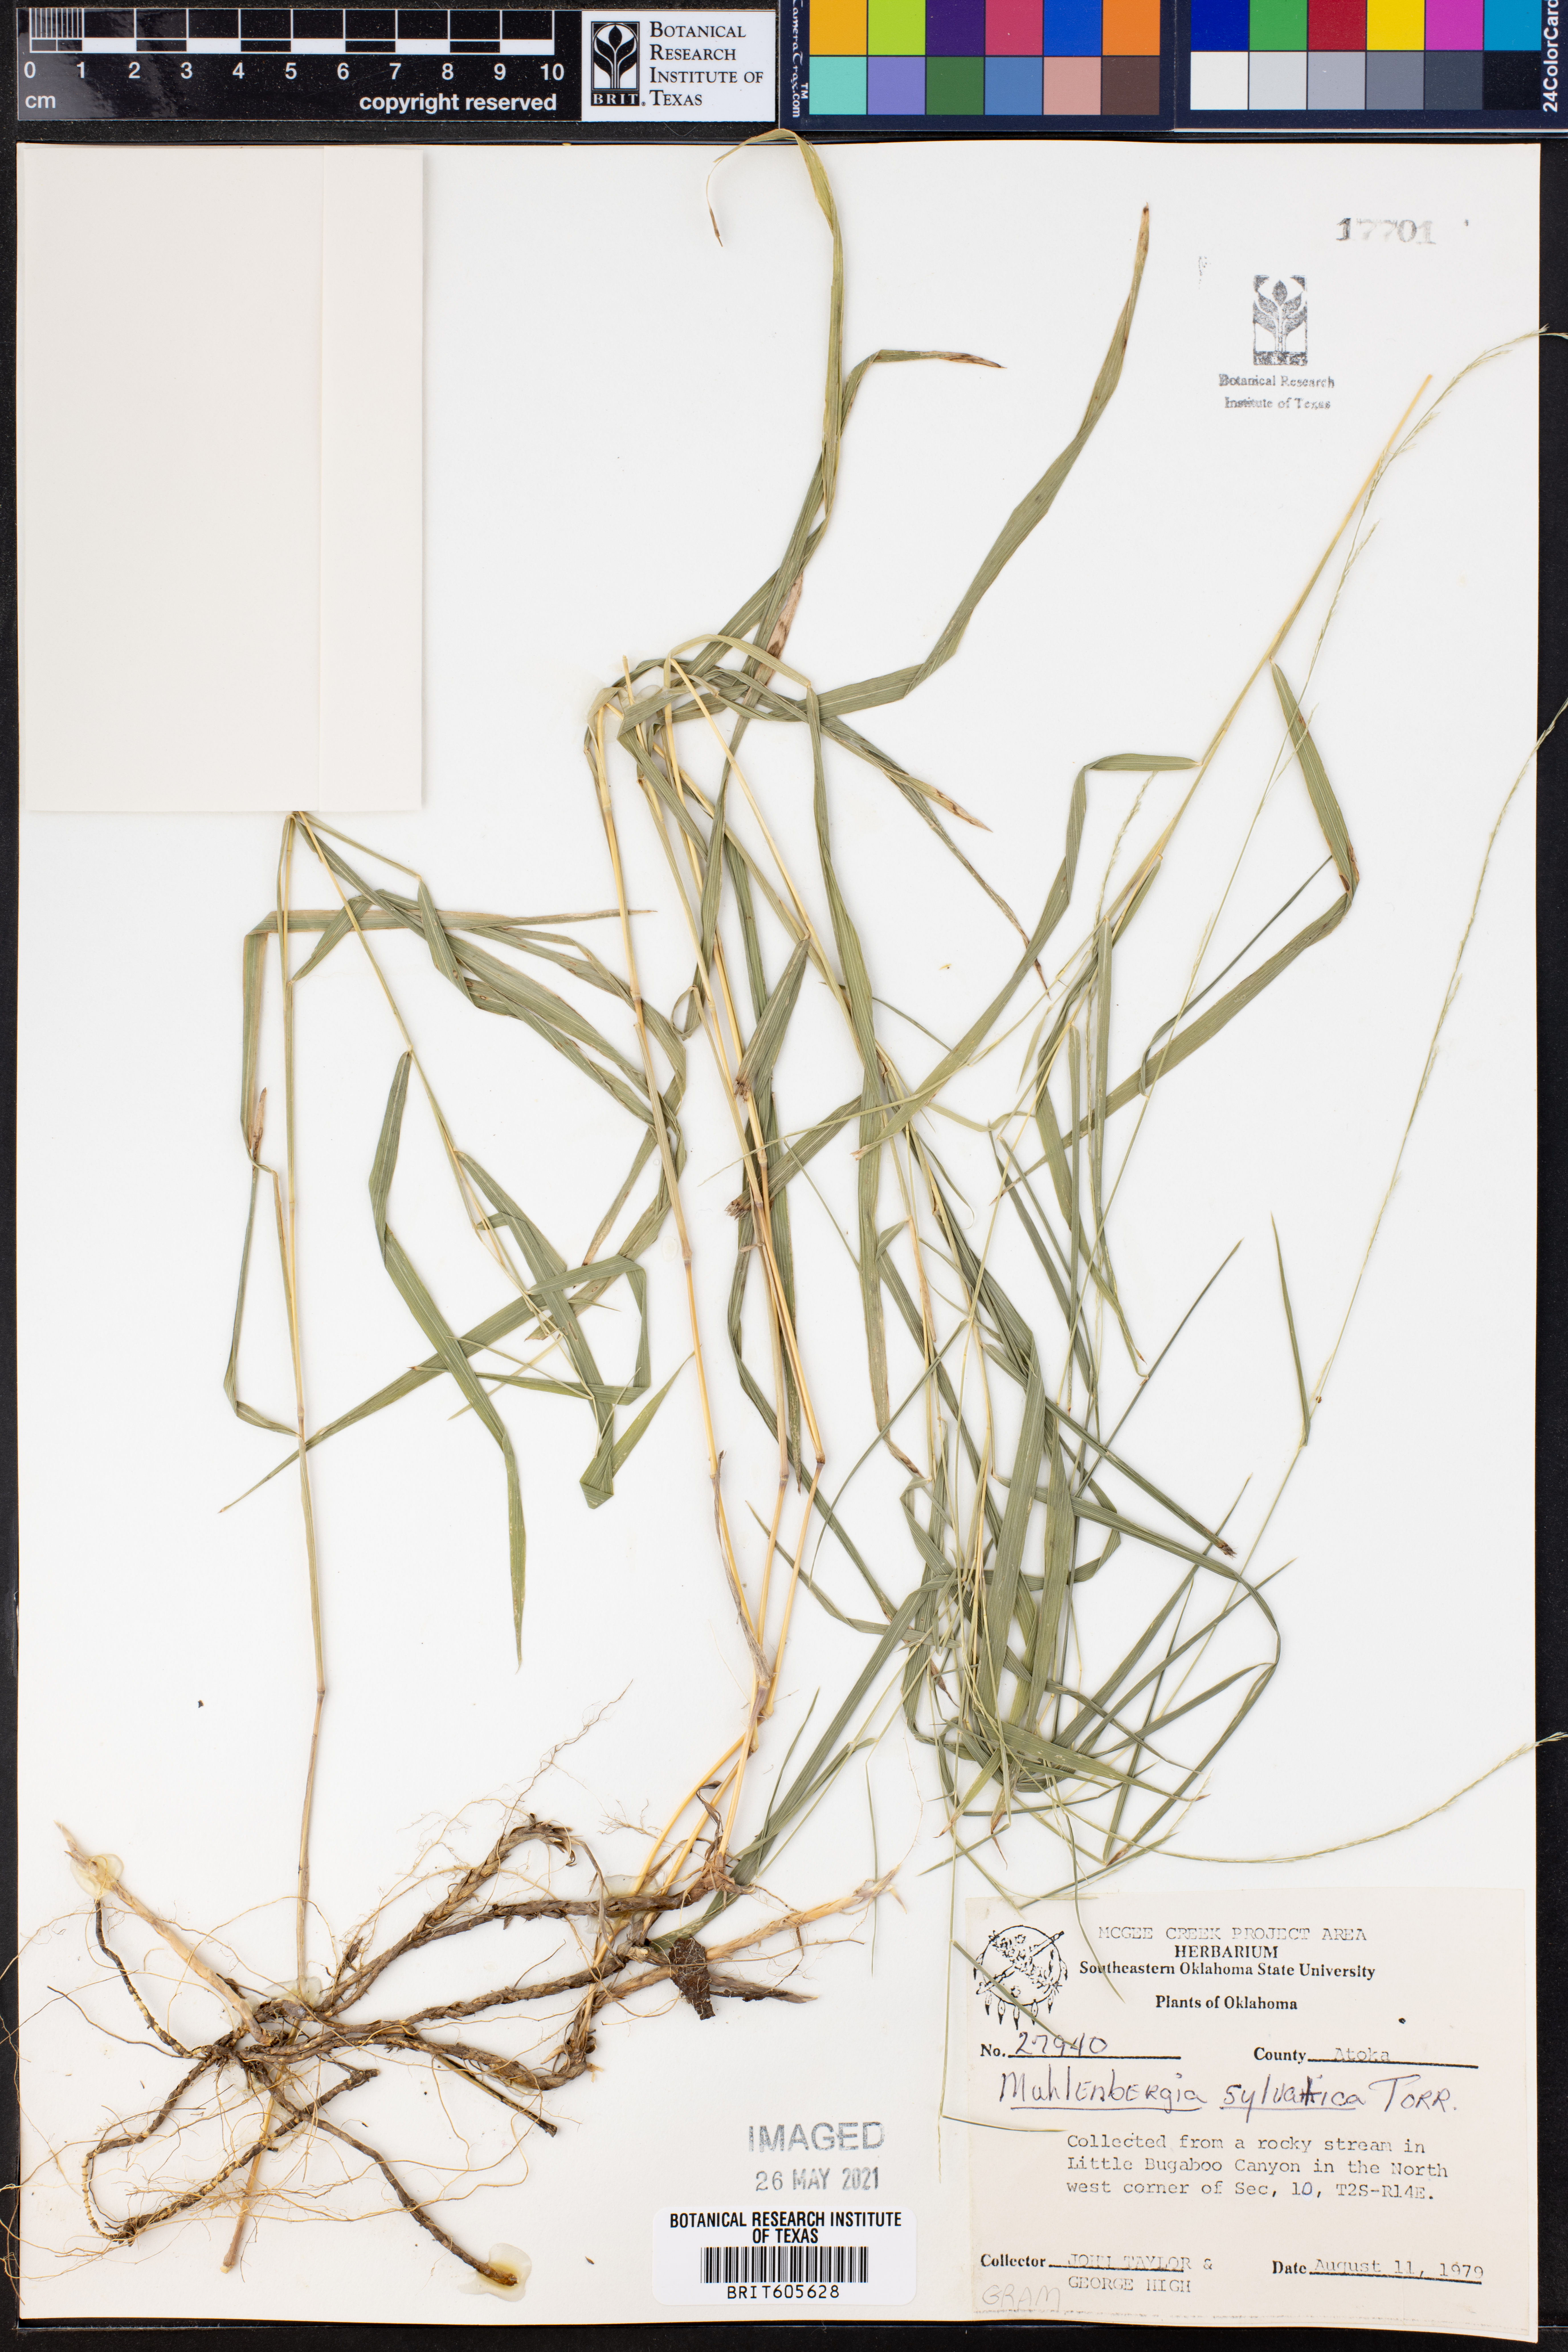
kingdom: Plantae
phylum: Tracheophyta
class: Liliopsida
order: Poales
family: Poaceae
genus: Muhlenbergia
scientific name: Muhlenbergia sylvatica
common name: Woodland muhly
